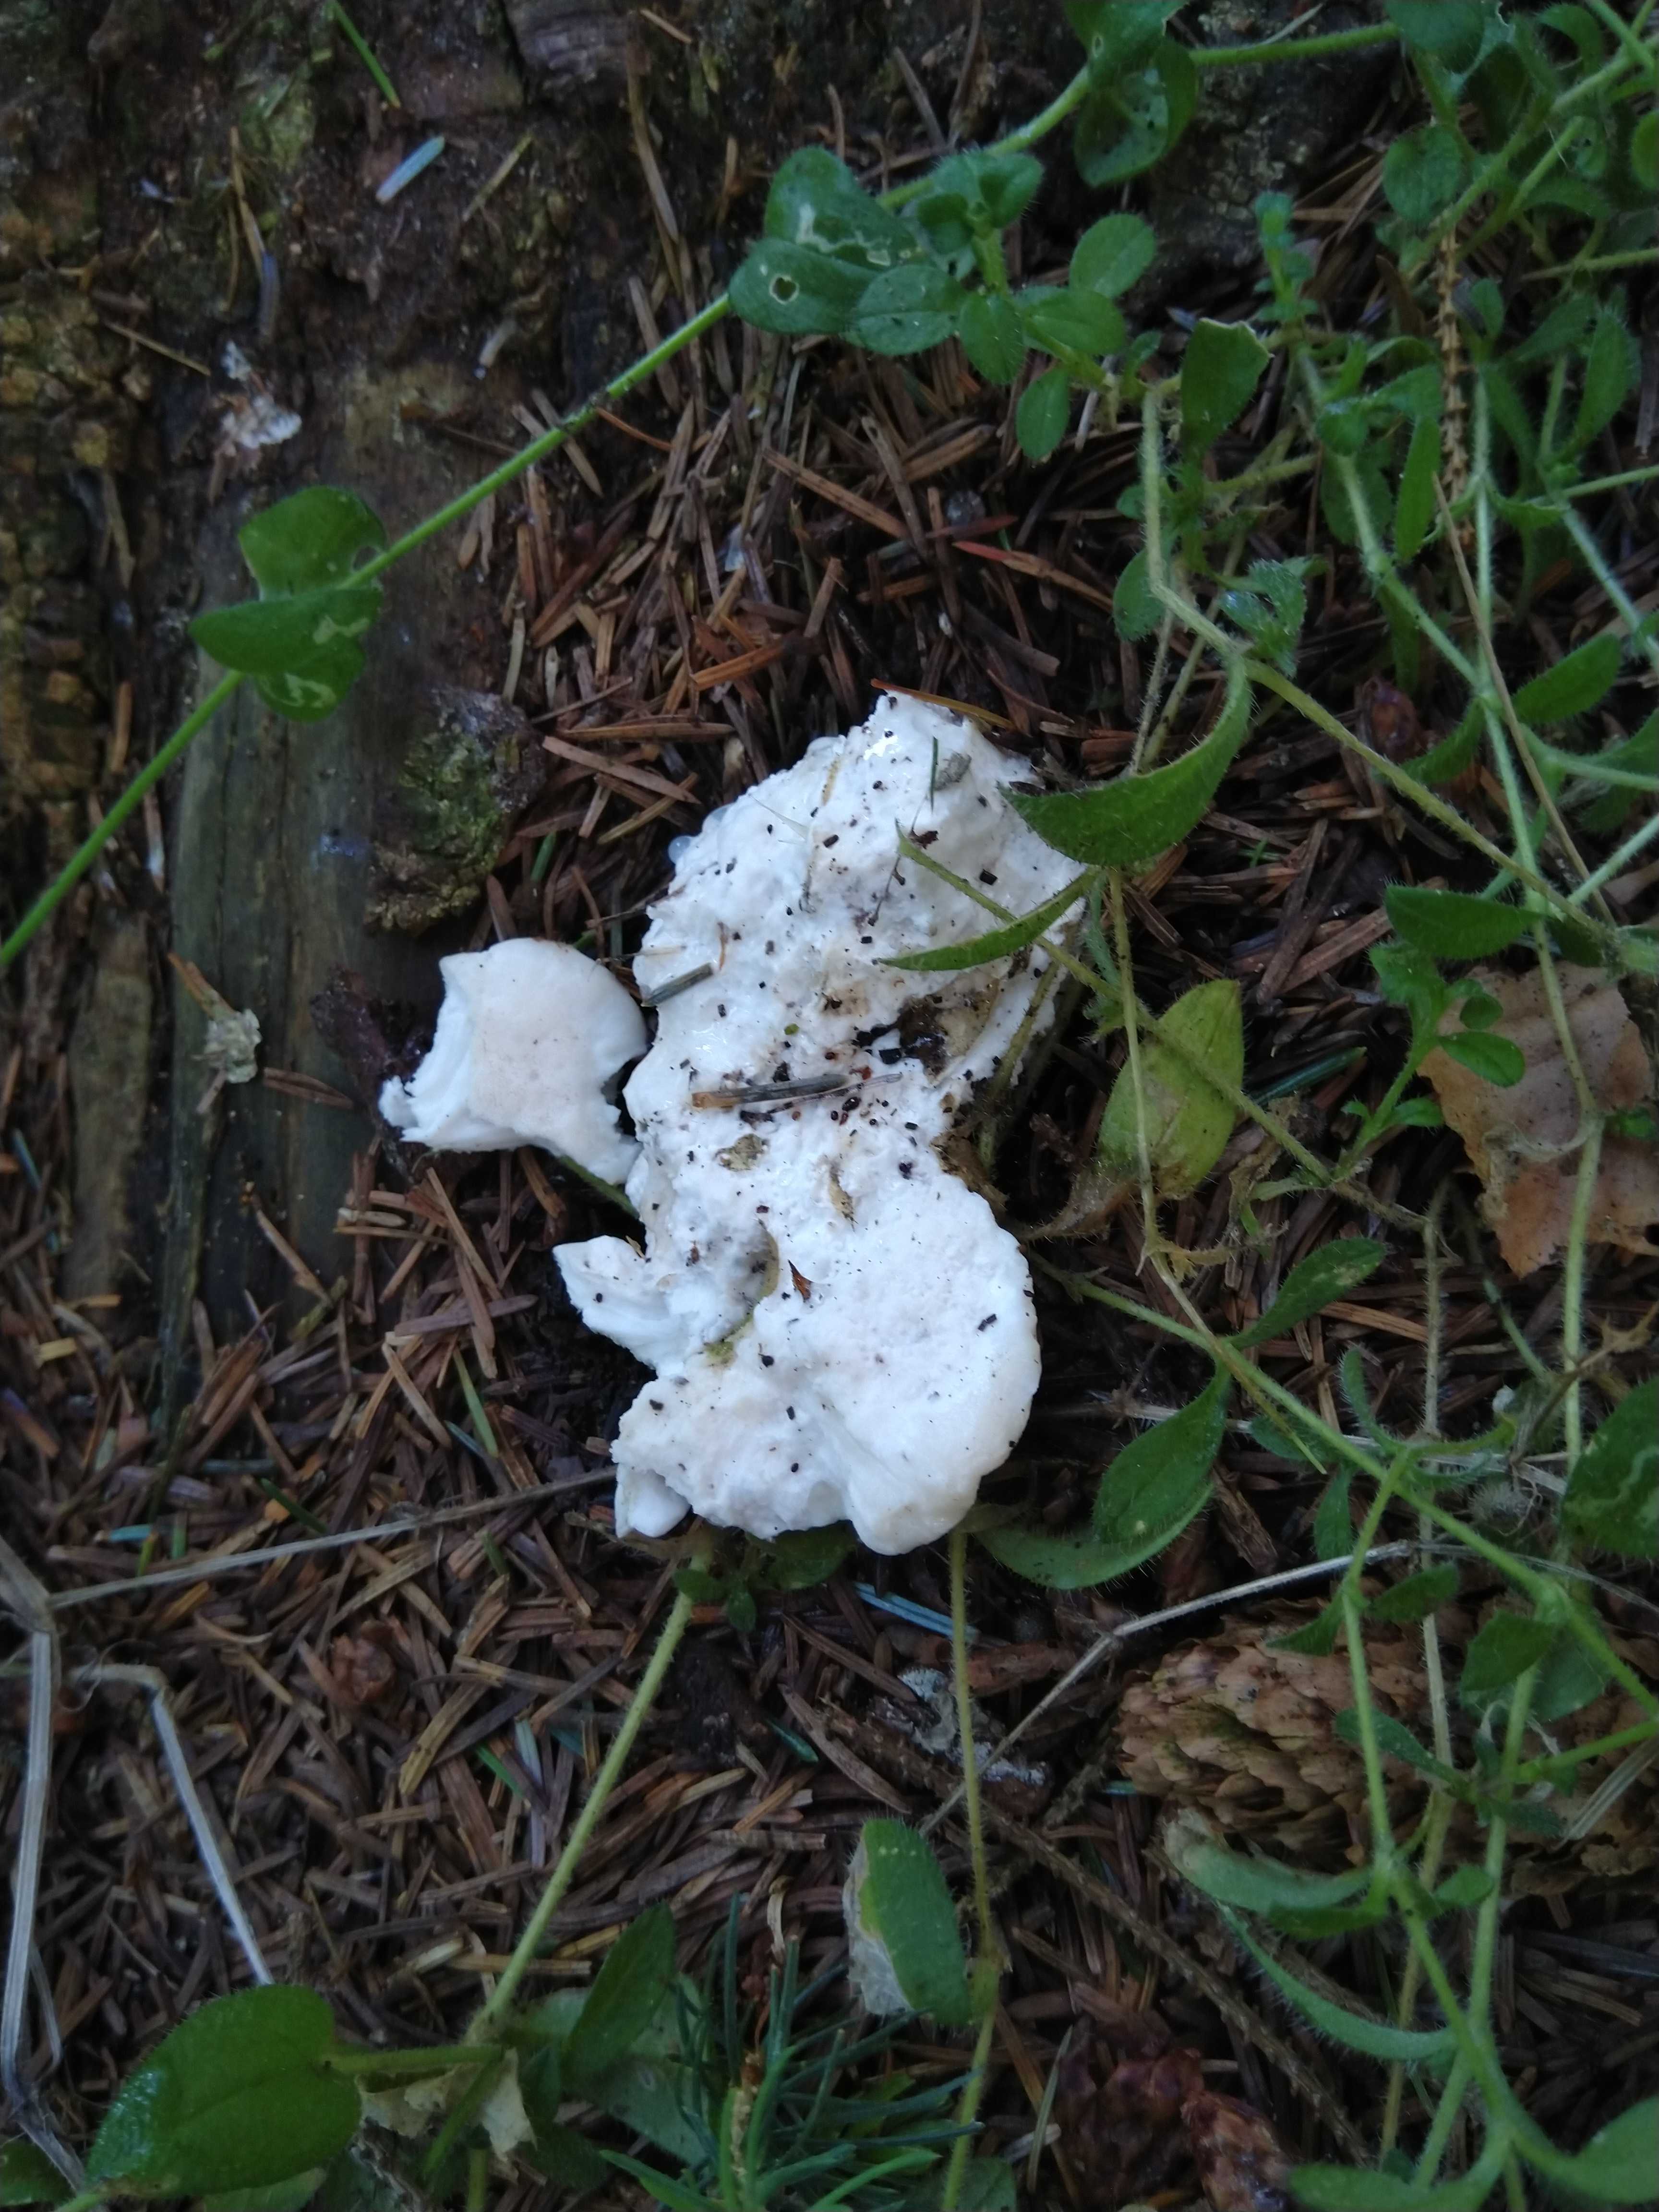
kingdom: Fungi
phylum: Basidiomycota
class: Agaricomycetes
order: Polyporales
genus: Amaropostia
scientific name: Amaropostia stiptica
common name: bitter kødporesvamp
